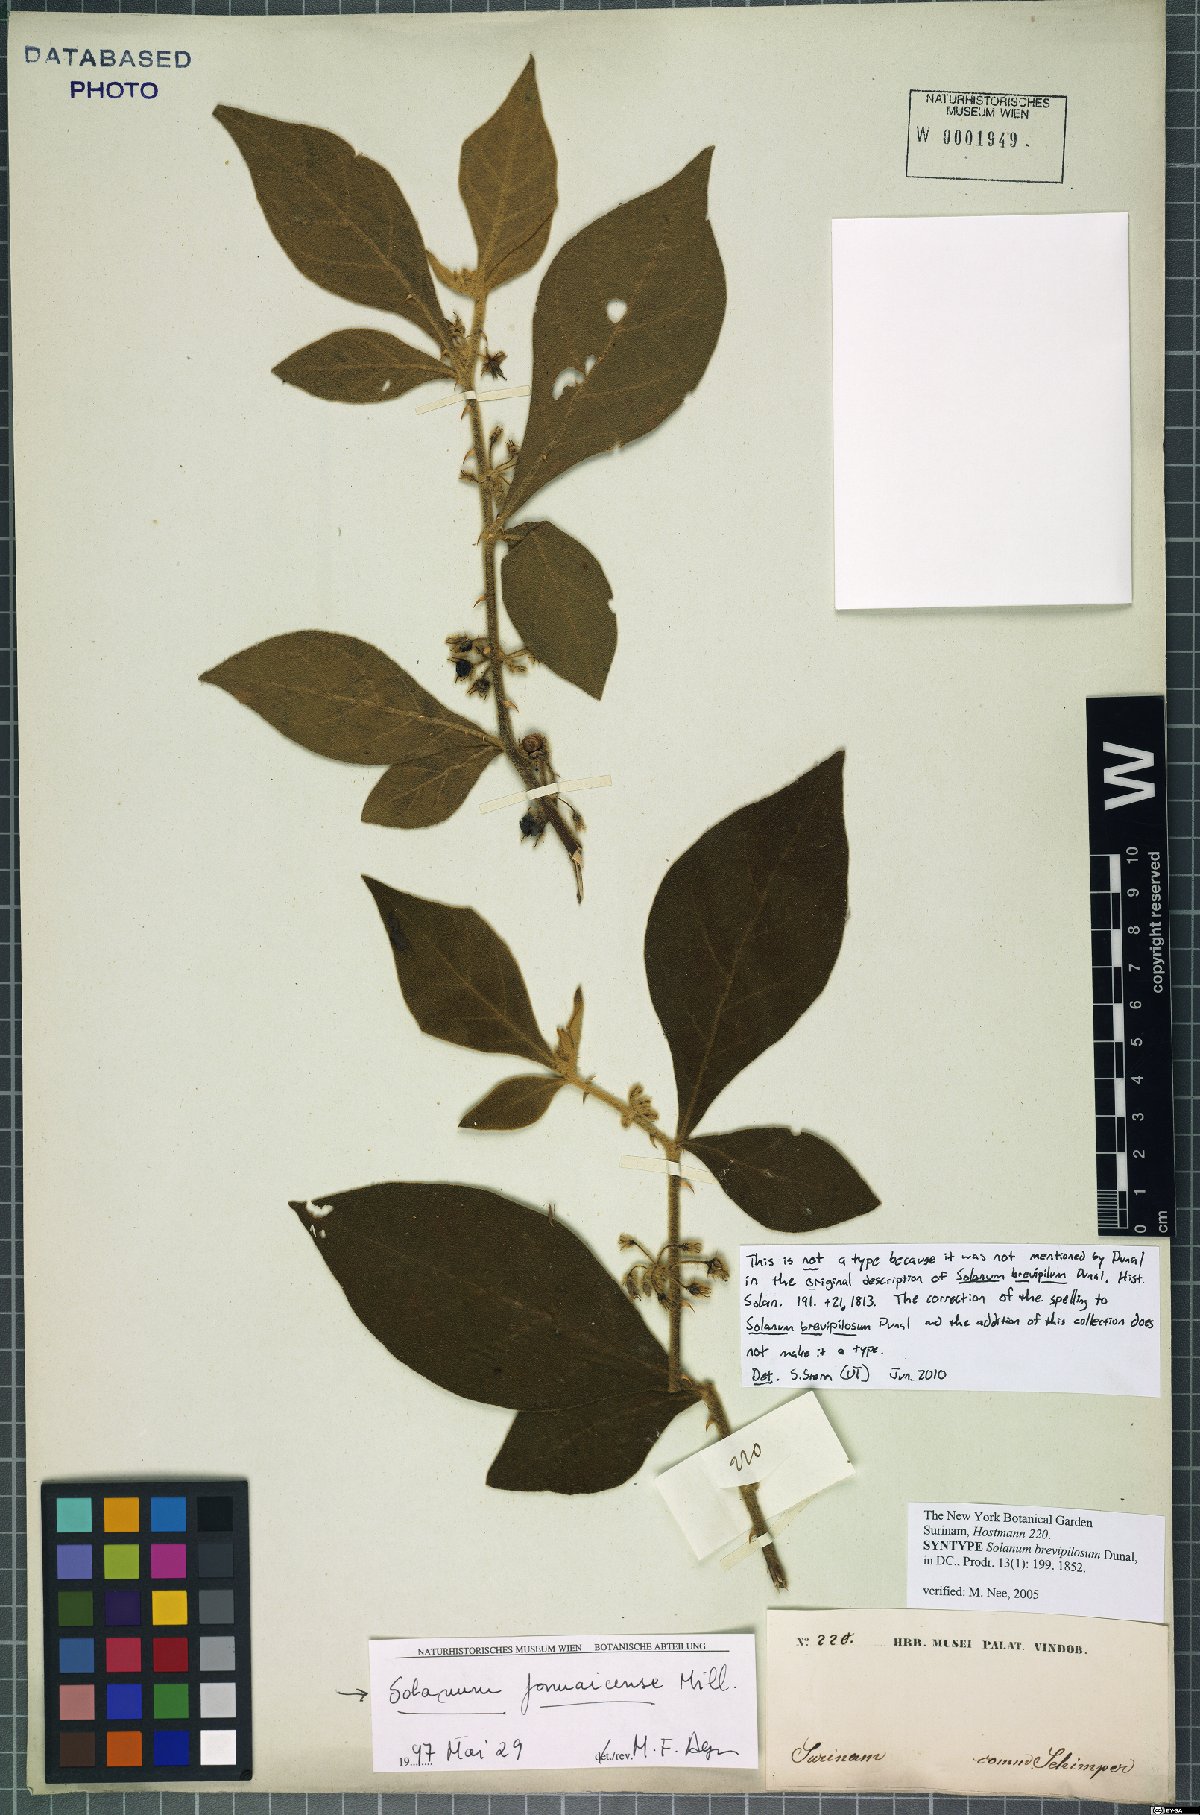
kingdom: Plantae
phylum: Tracheophyta
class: Magnoliopsida
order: Solanales
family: Solanaceae
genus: Solanum
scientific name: Solanum jamaicense
